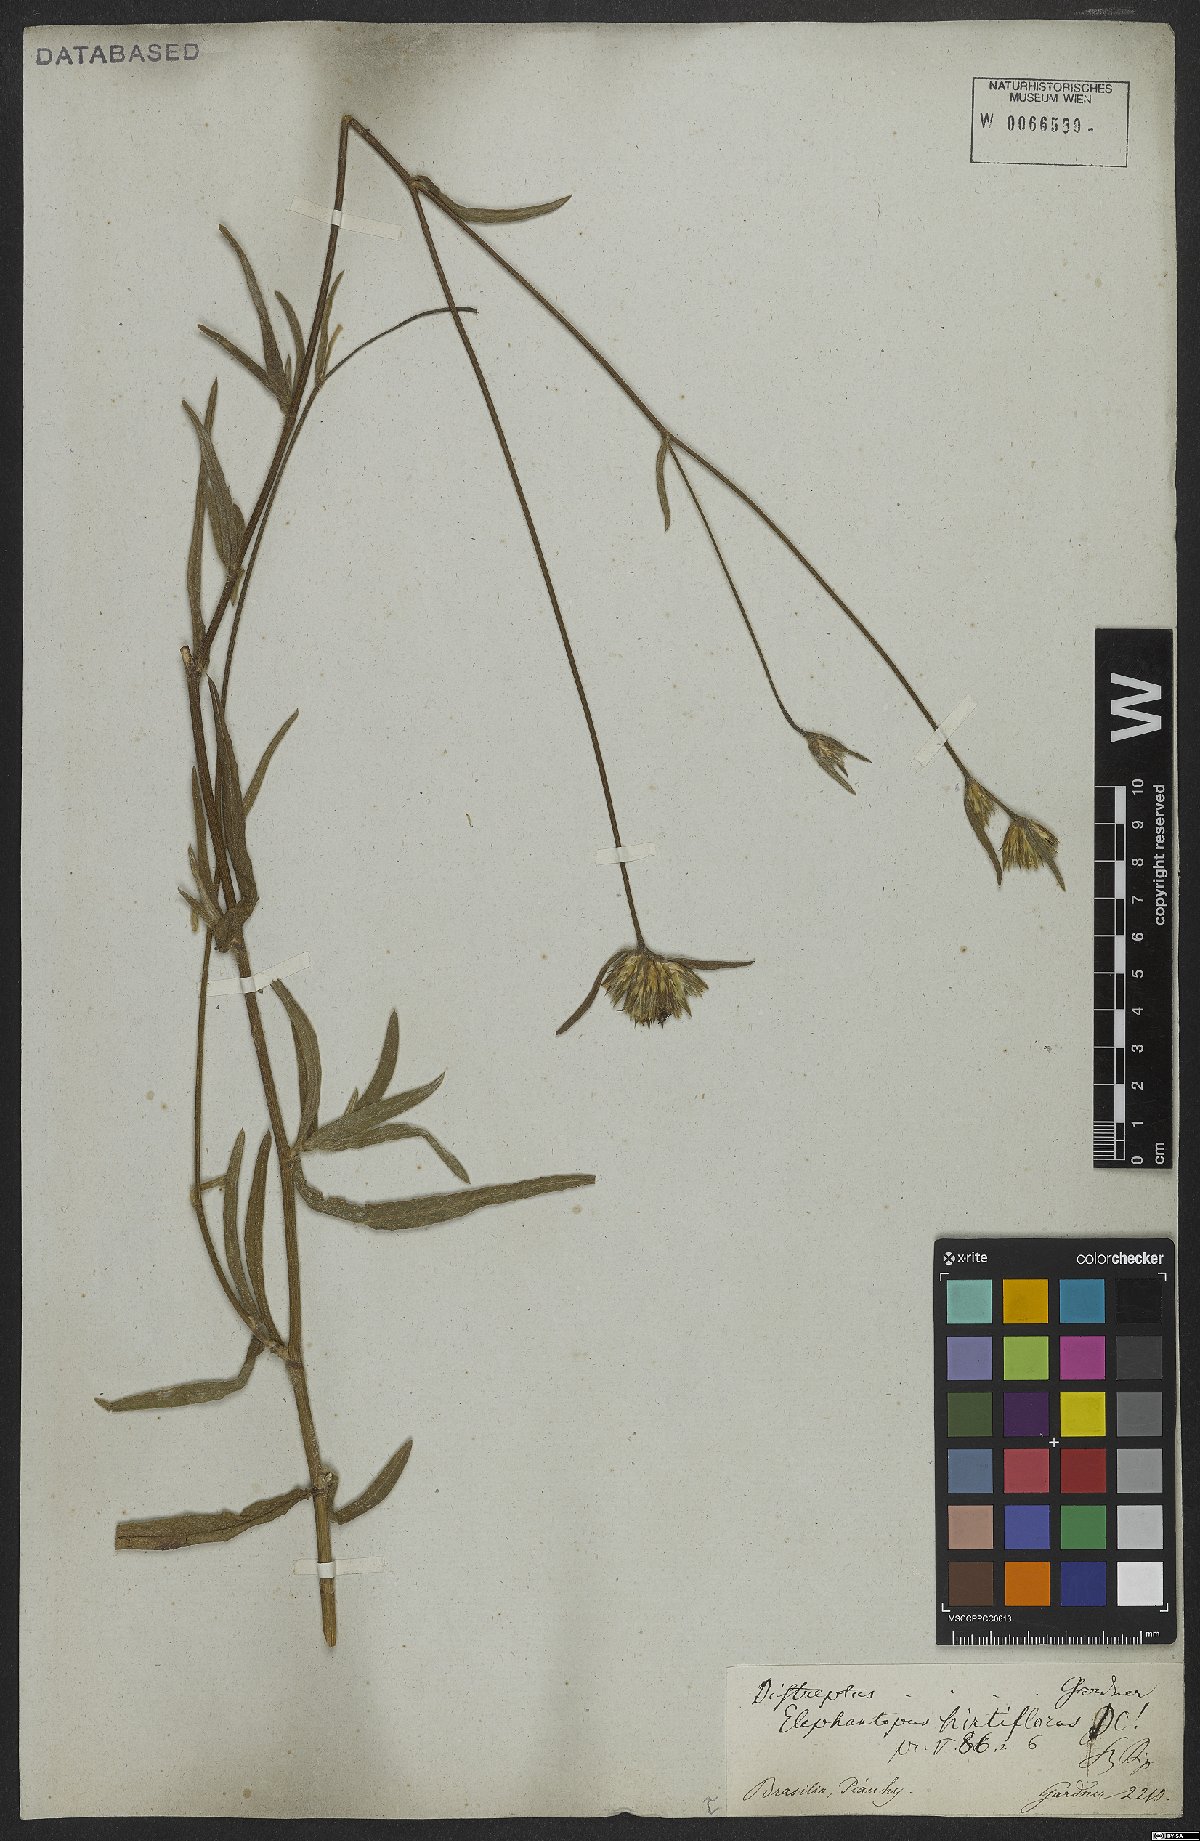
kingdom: Plantae
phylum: Tracheophyta
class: Magnoliopsida
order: Asterales
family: Asteraceae
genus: Elephantopus
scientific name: Elephantopus hirtiflorus
